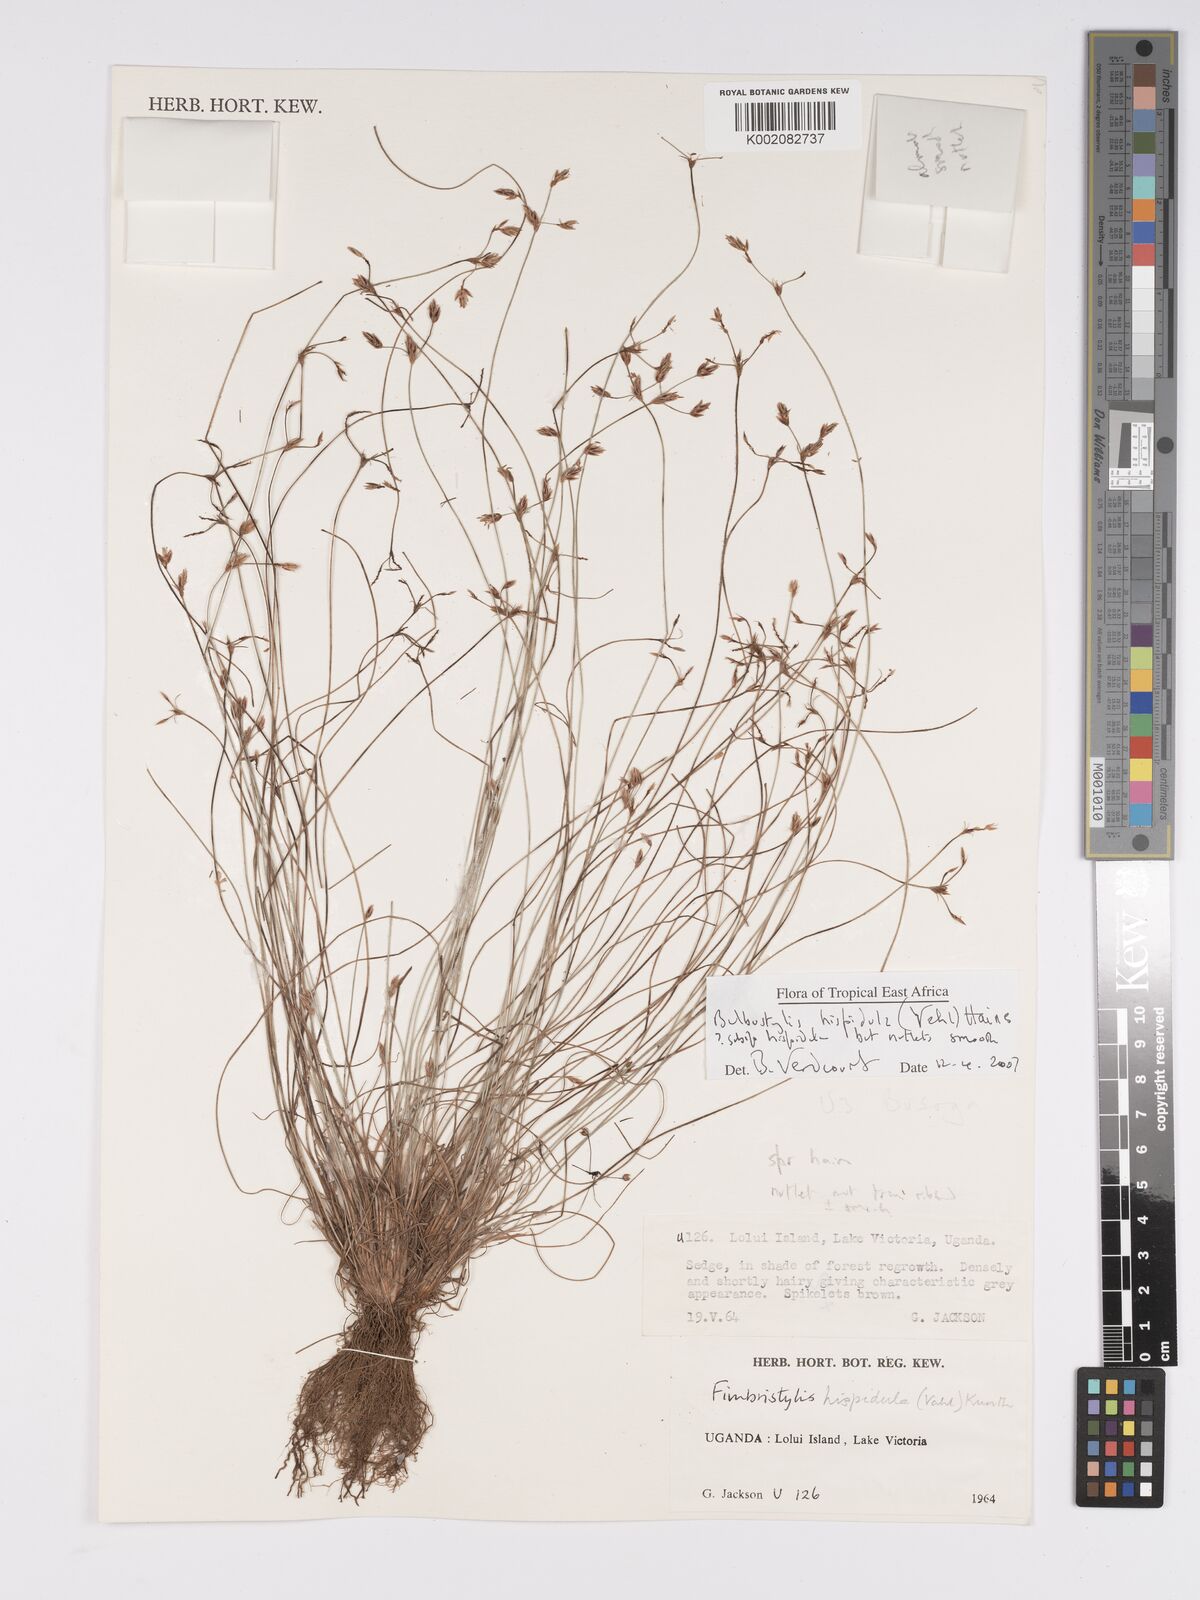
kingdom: Plantae
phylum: Tracheophyta
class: Magnoliopsida
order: Asterales
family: Asteraceae
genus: Bulbostylis
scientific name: Bulbostylis
